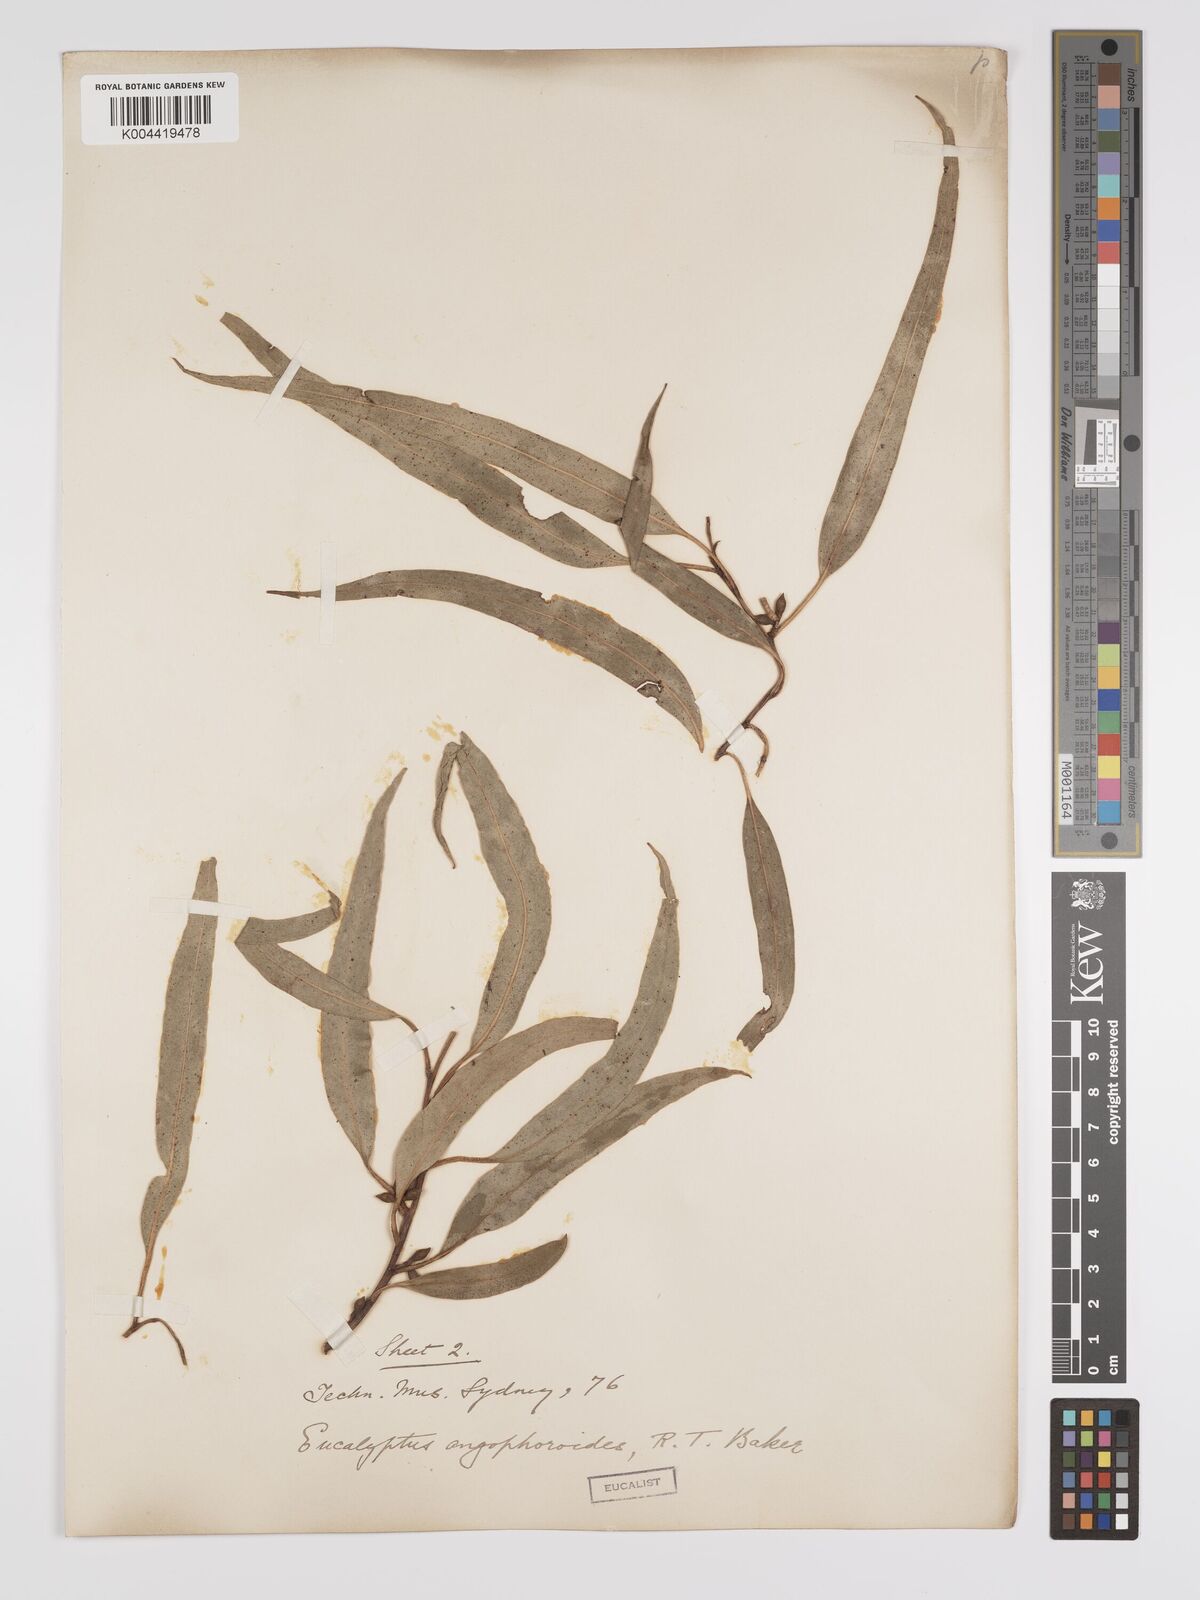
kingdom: Plantae
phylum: Tracheophyta
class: Magnoliopsida
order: Myrtales
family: Myrtaceae
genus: Eucalyptus
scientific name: Eucalyptus angophoroides
